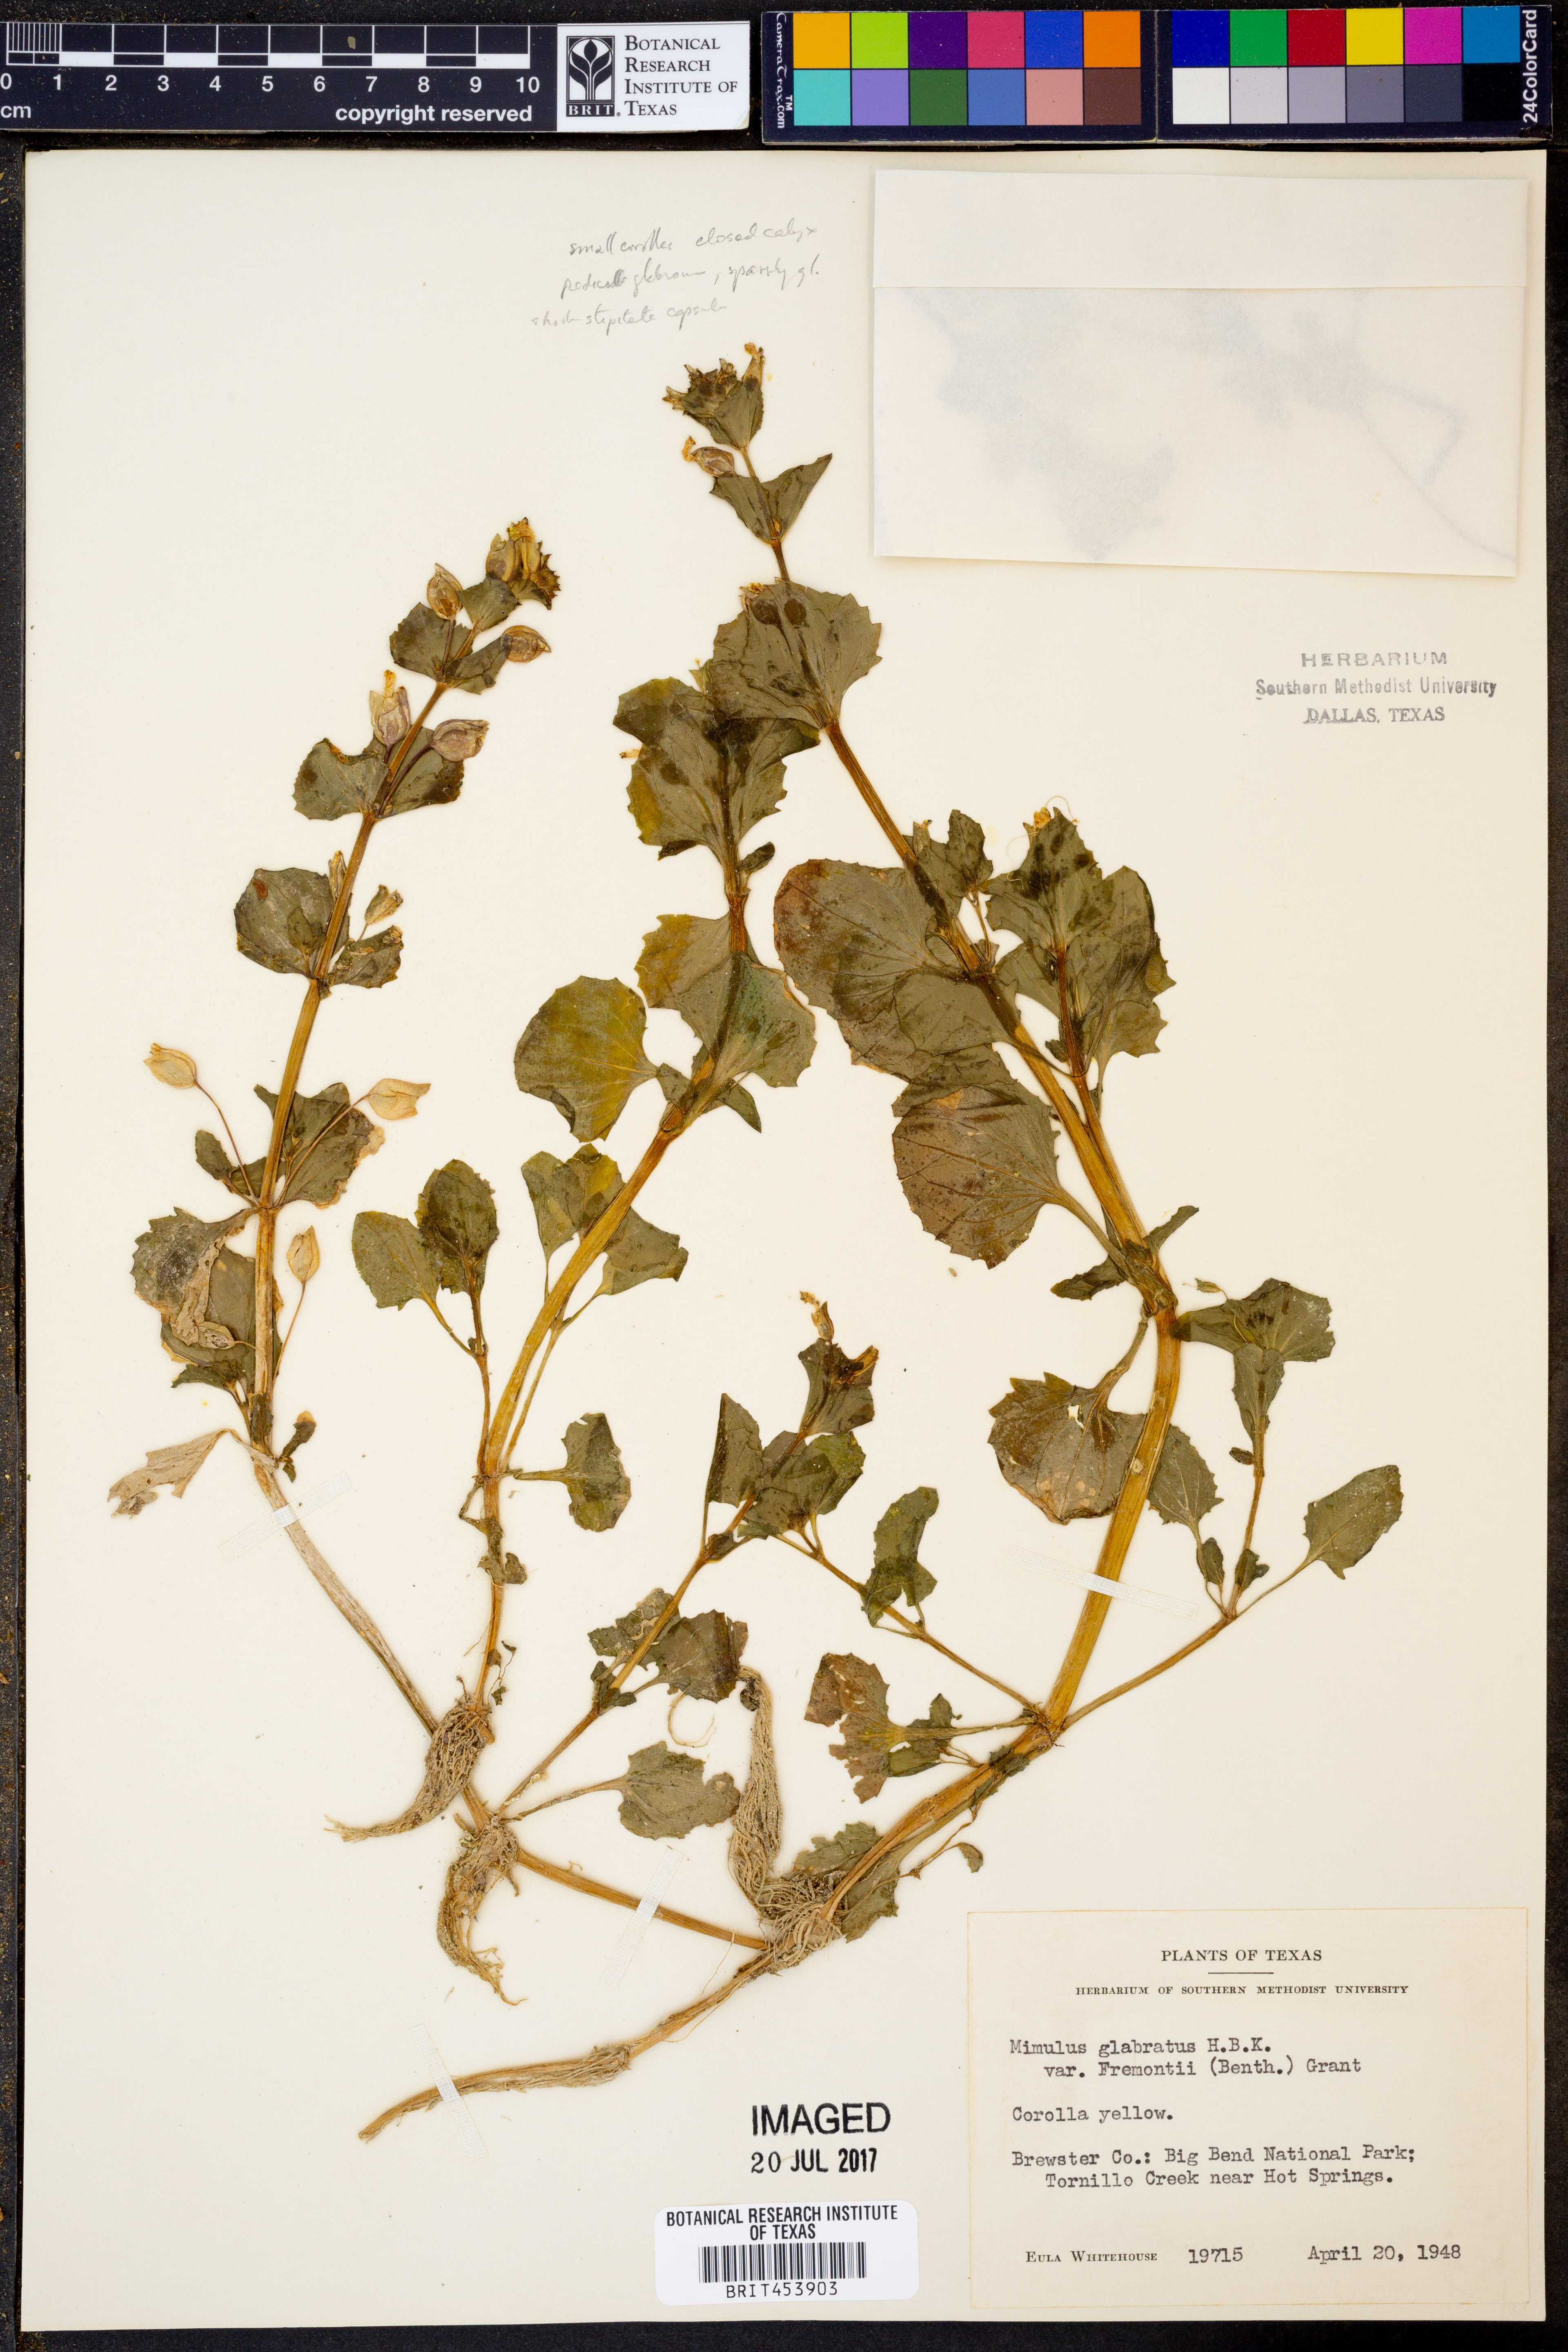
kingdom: Plantae
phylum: Tracheophyta
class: Magnoliopsida
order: Lamiales
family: Phrymaceae
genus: Erythranthe
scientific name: Erythranthe geyeri
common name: Geyer's monkeyflower
